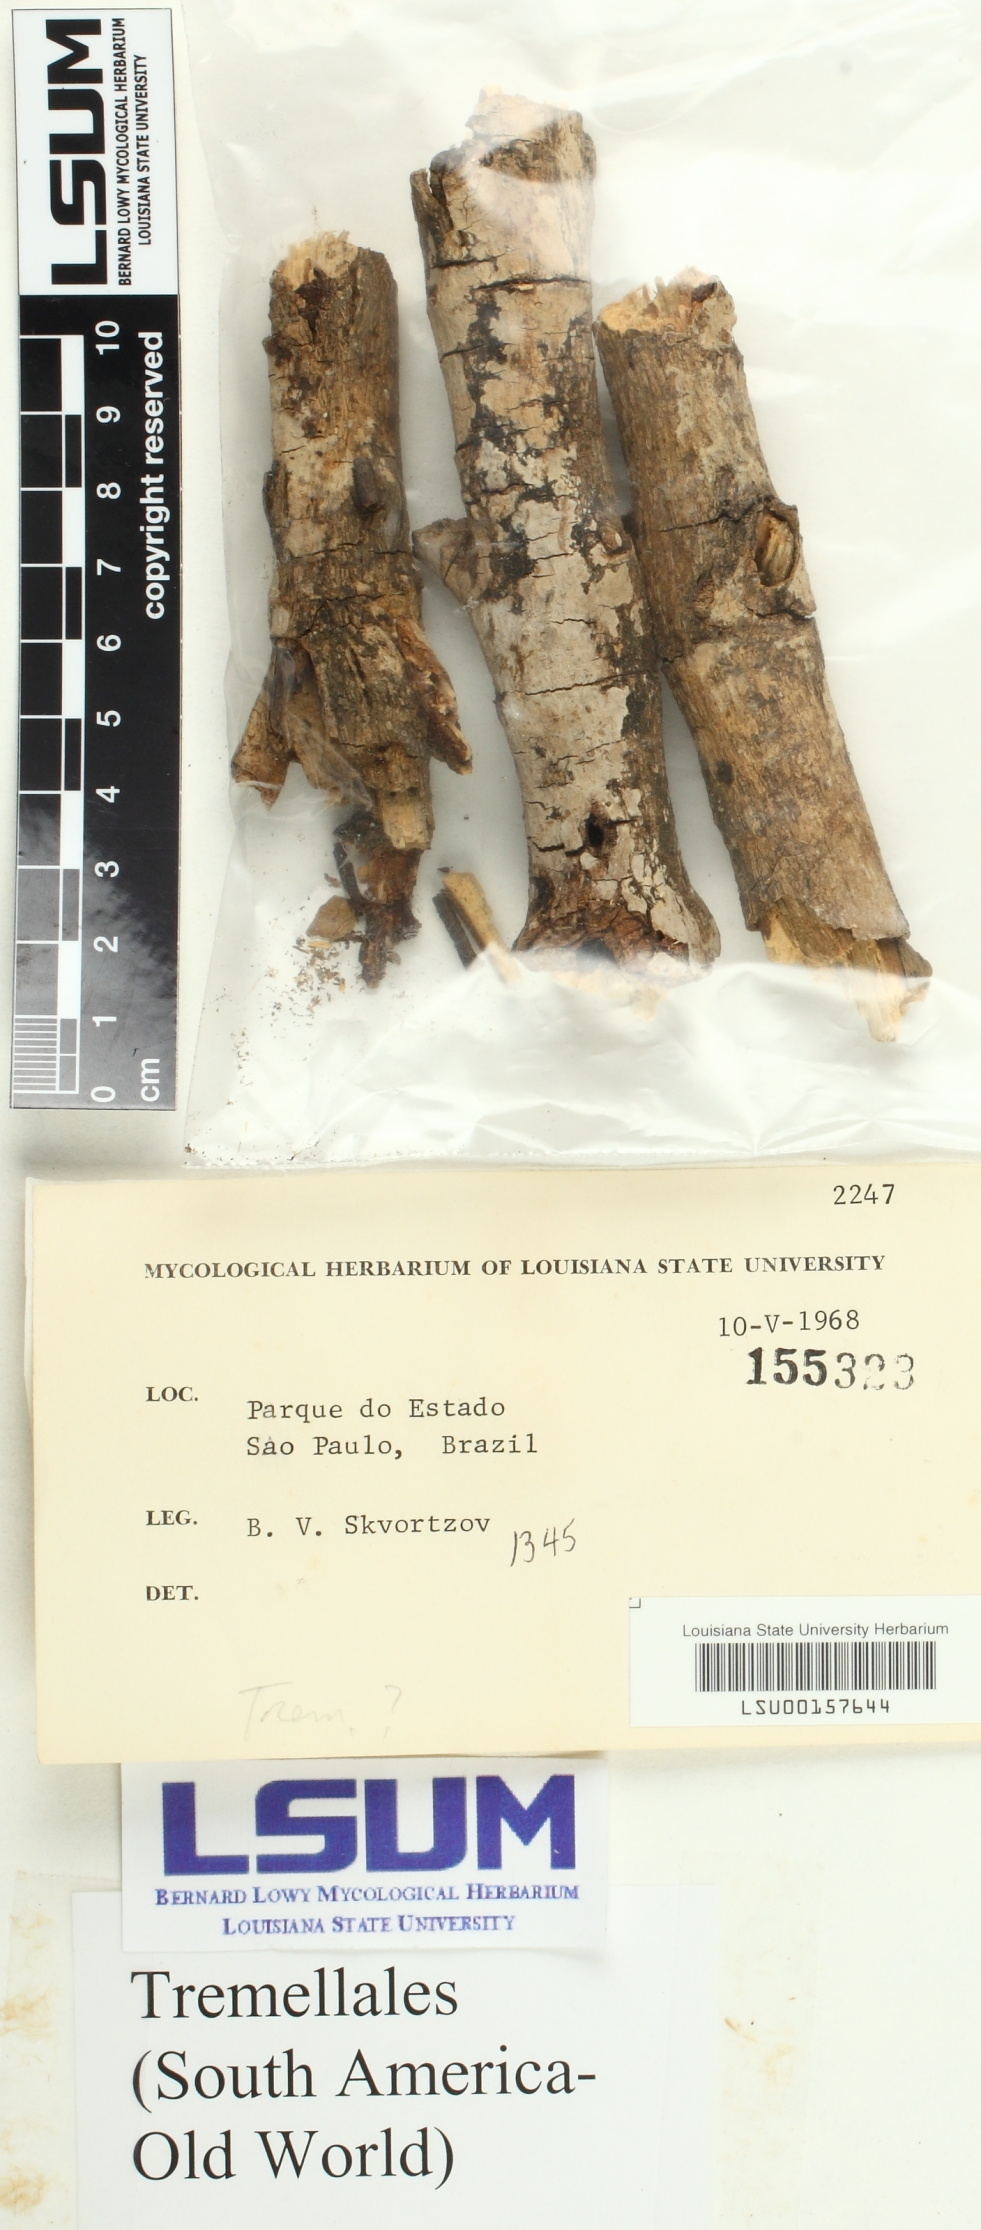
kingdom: Fungi
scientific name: Fungi
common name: Fungi
